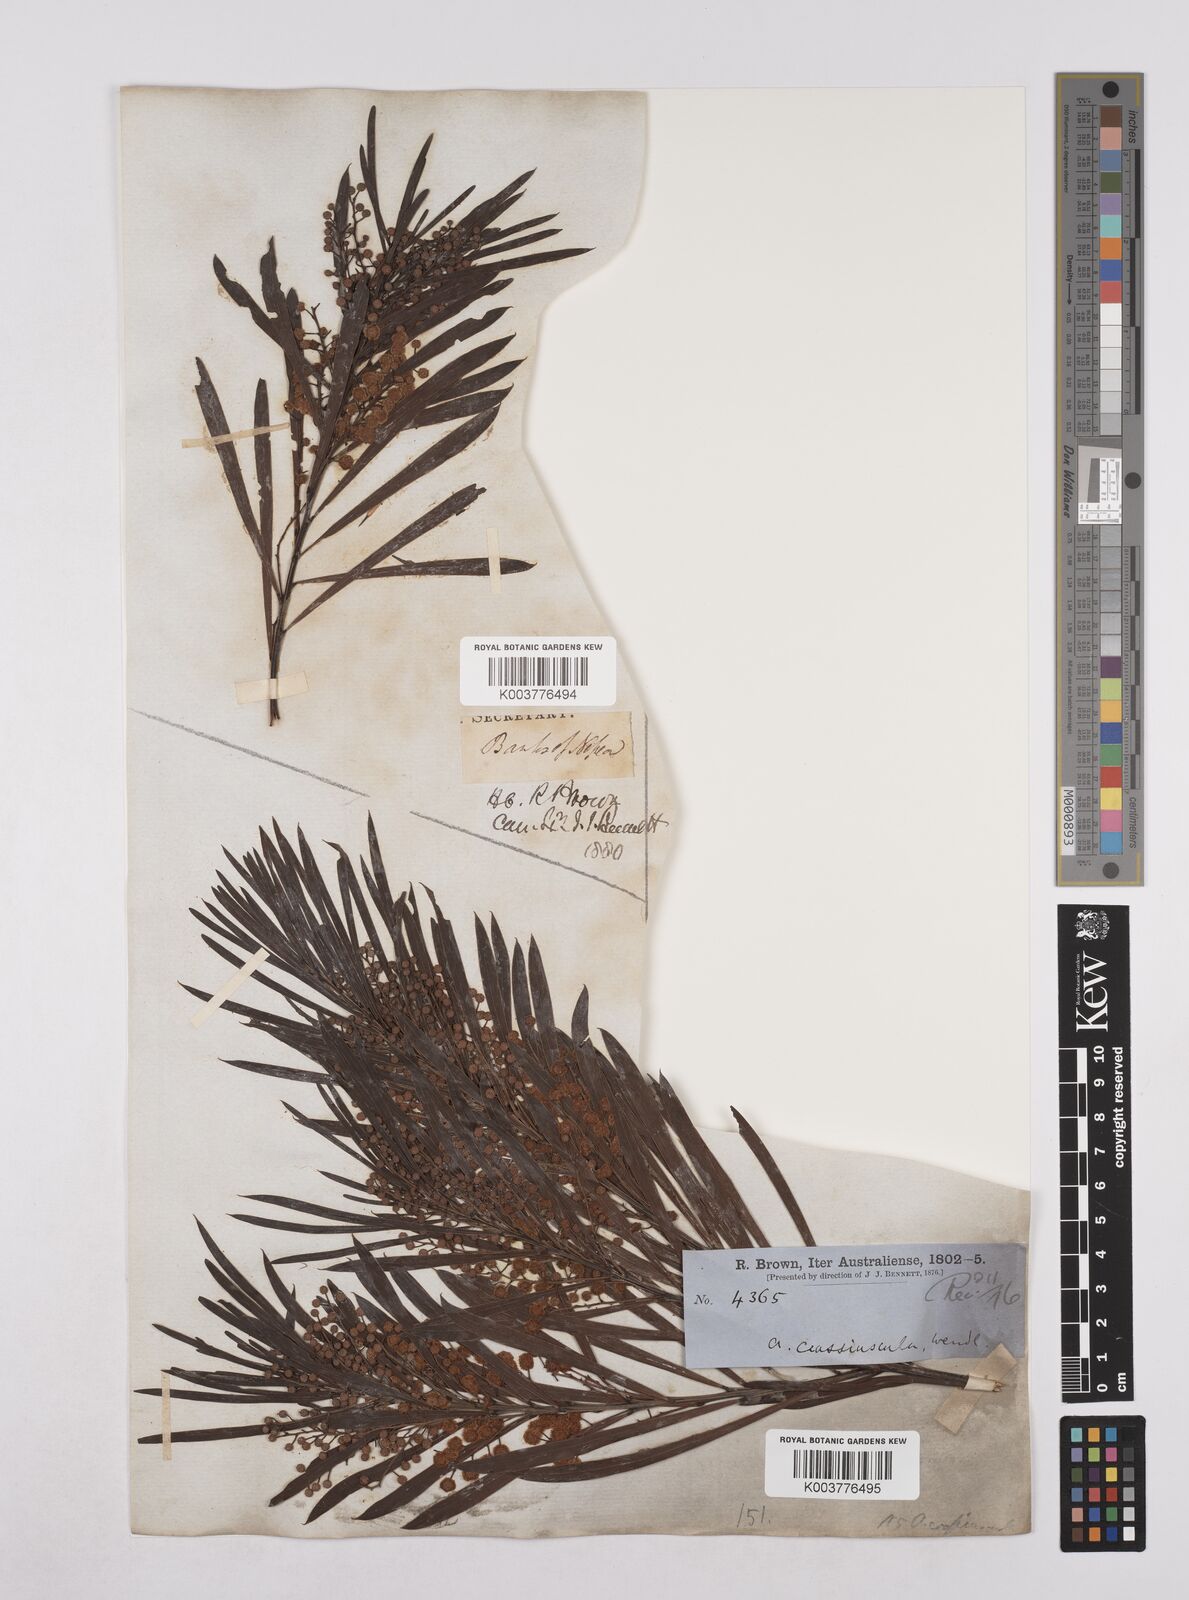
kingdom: Plantae
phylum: Tracheophyta
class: Magnoliopsida
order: Fabales
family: Fabaceae
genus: Acacia
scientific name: Acacia flocktoniae
